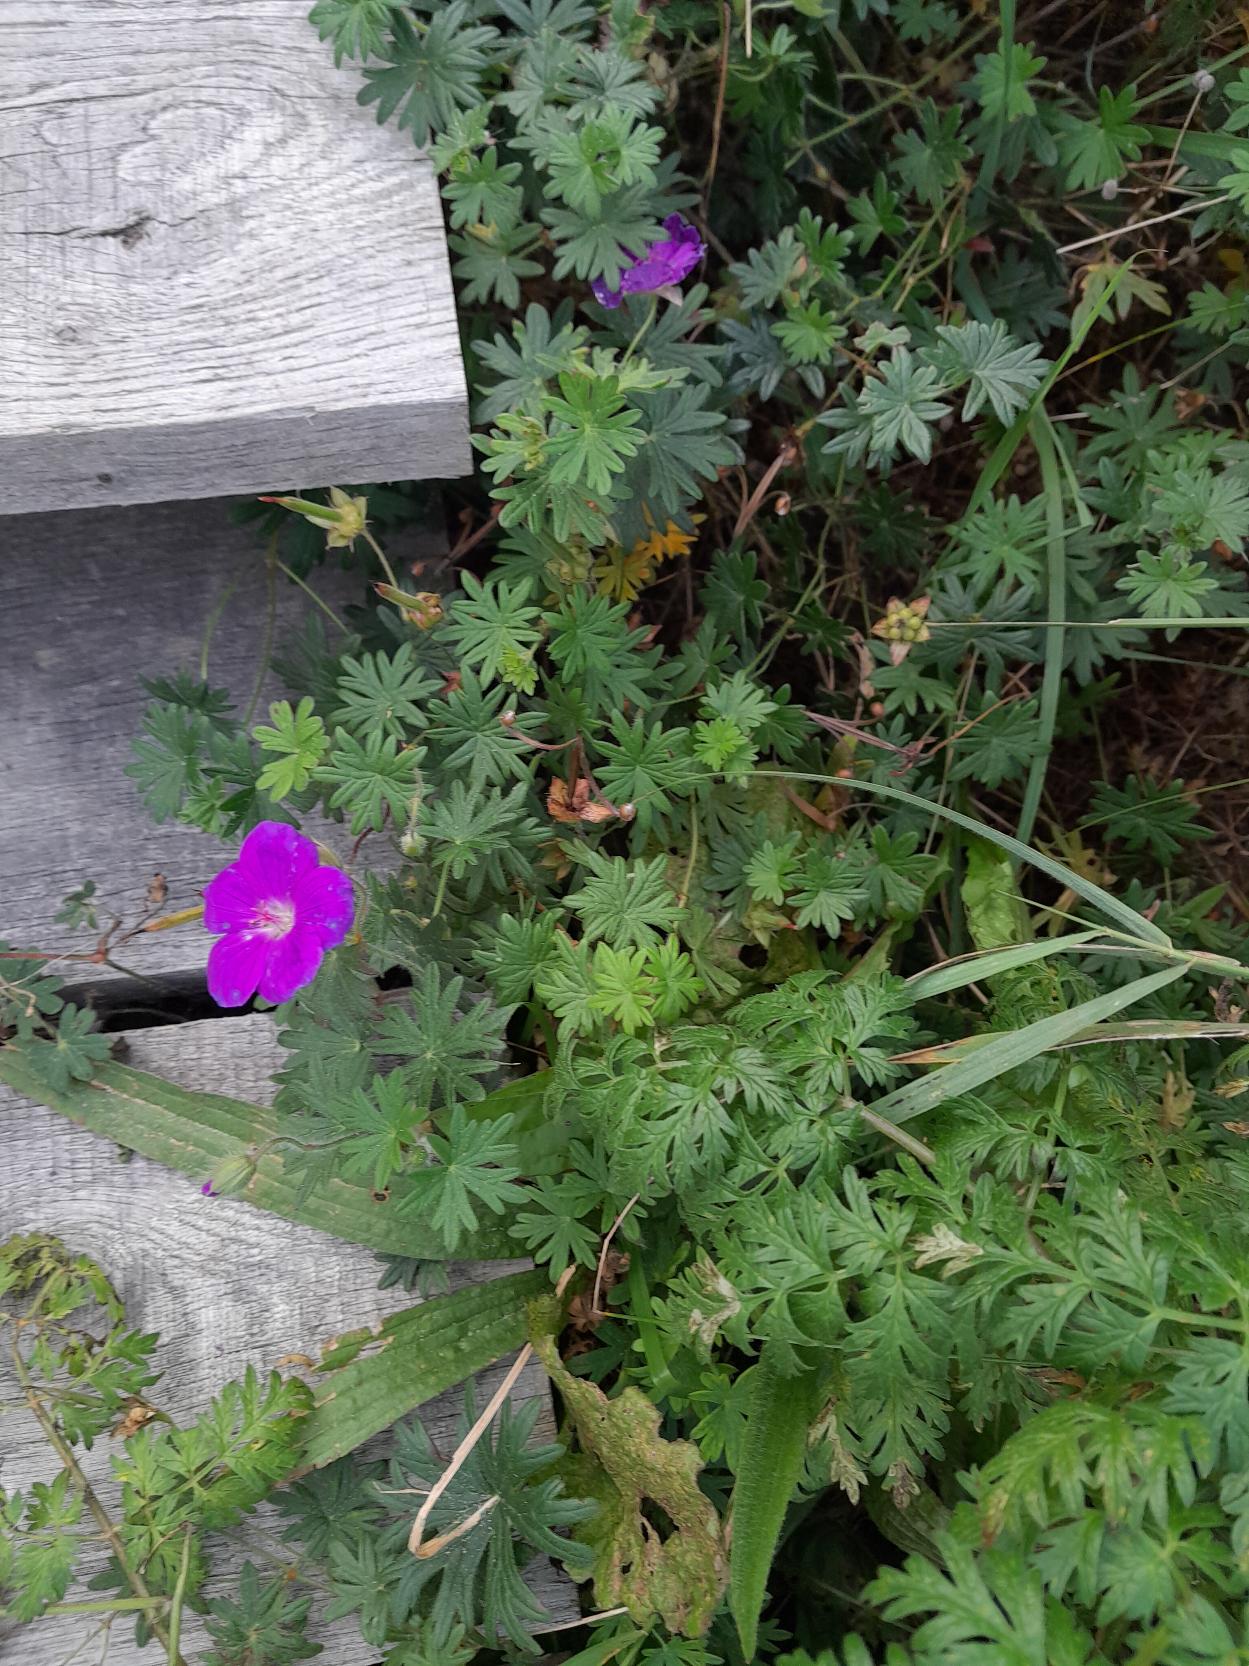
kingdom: Plantae
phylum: Tracheophyta
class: Magnoliopsida
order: Geraniales
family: Geraniaceae
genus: Geranium
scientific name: Geranium sanguineum
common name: Blodrød storkenæb
